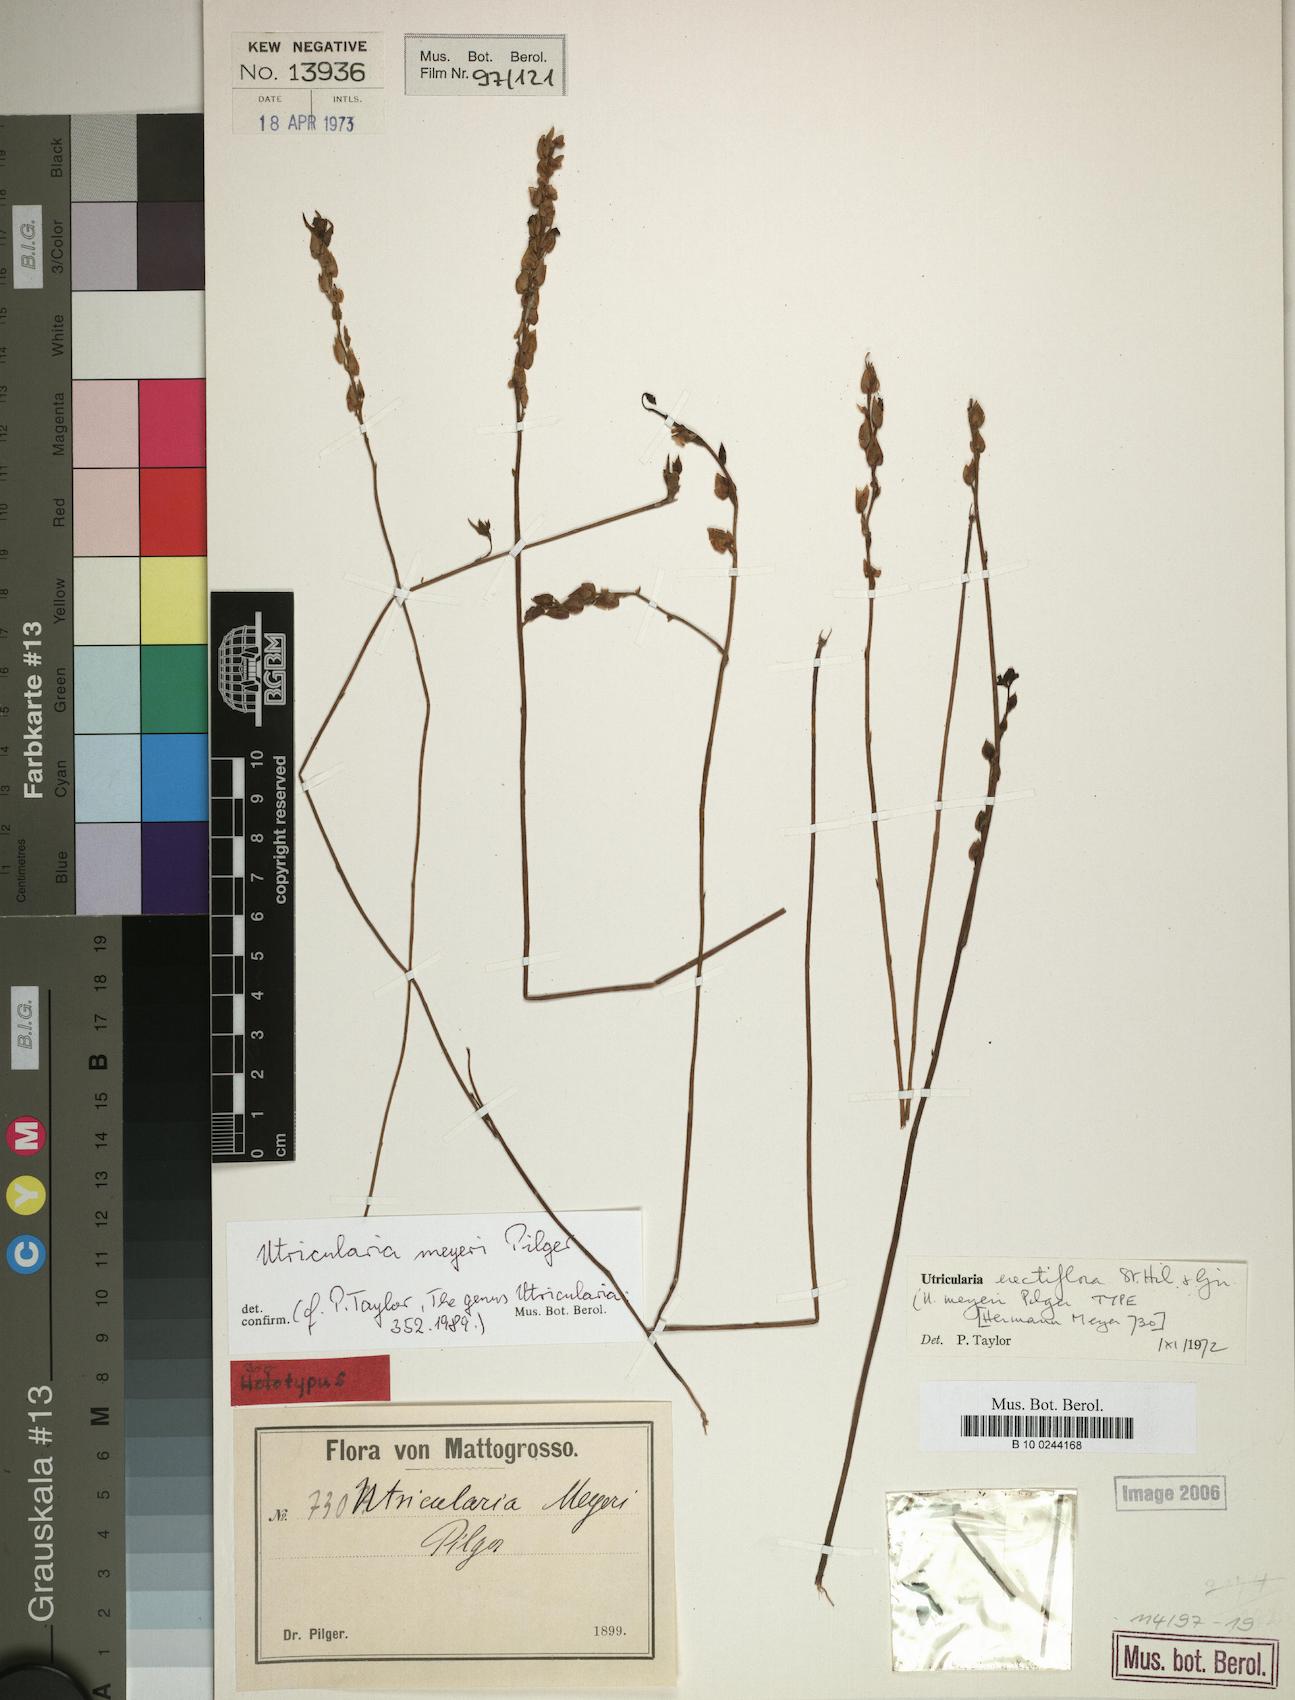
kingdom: Plantae
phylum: Tracheophyta
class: Magnoliopsida
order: Lamiales
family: Lentibulariaceae
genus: Utricularia
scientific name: Utricularia erectiflora
